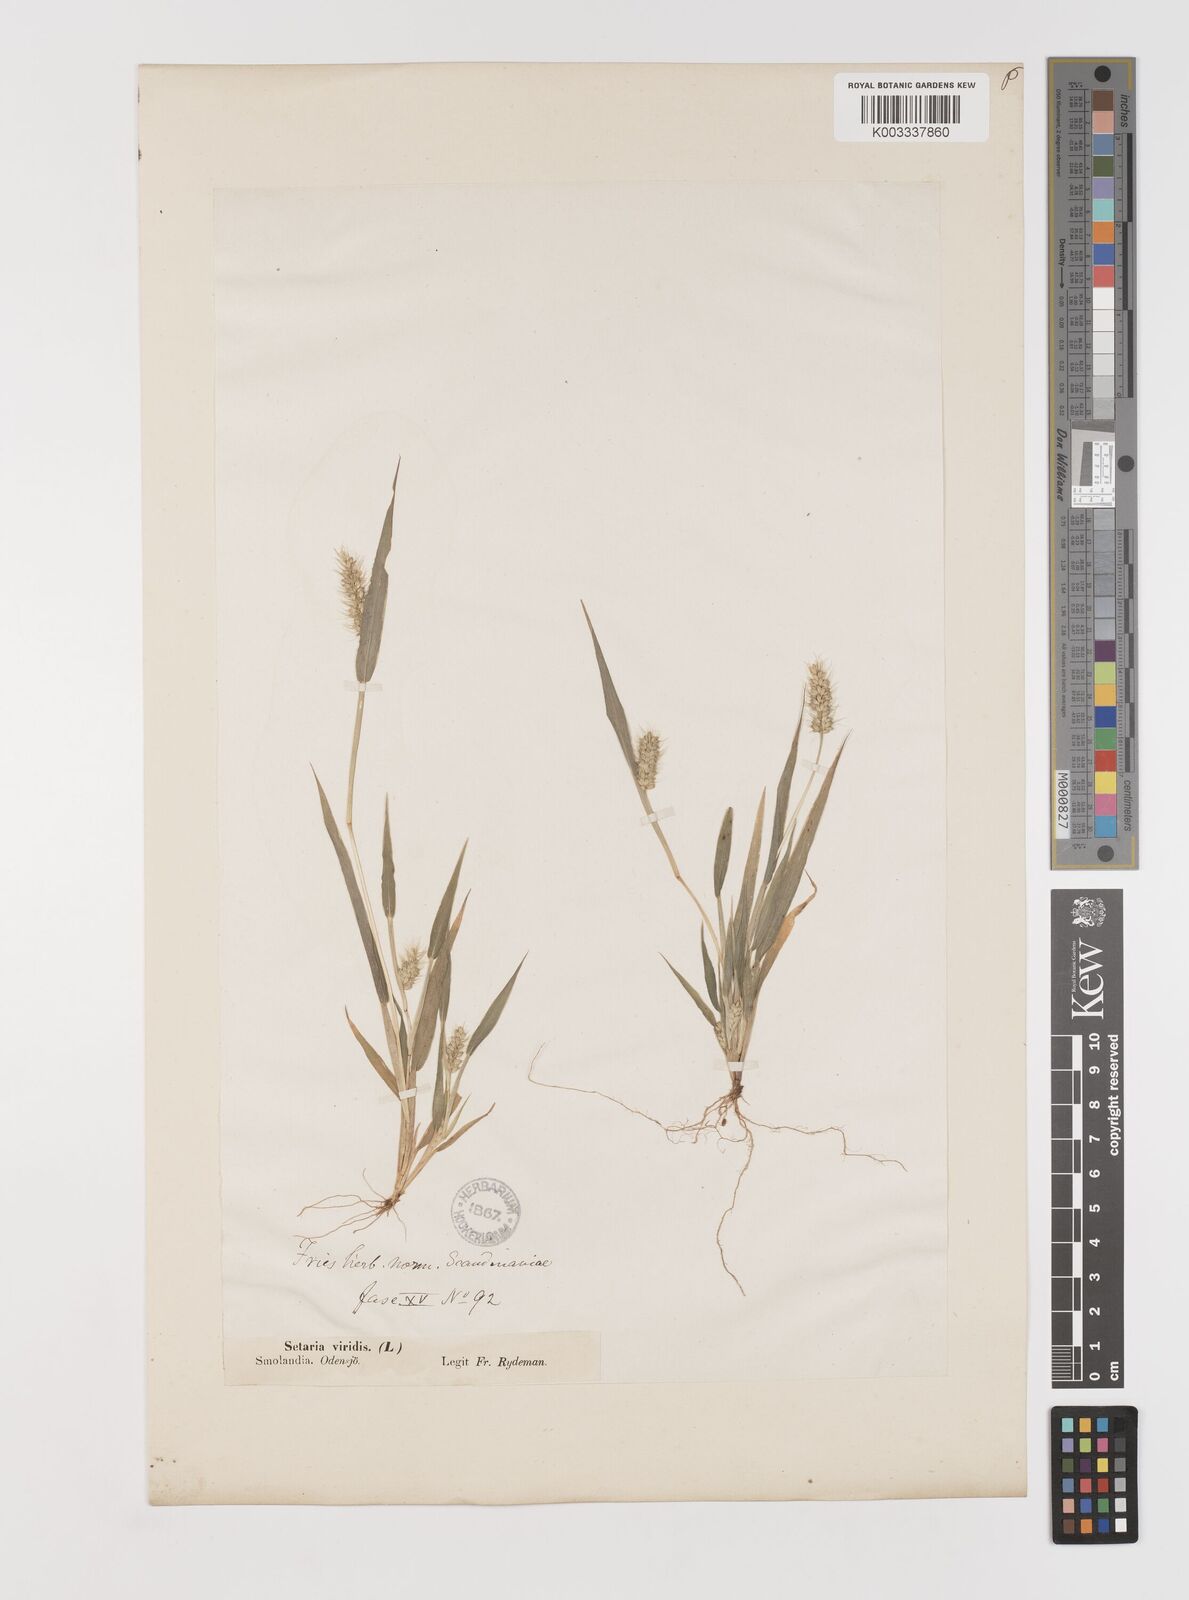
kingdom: Plantae
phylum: Tracheophyta
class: Liliopsida
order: Poales
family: Poaceae
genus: Setaria
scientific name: Setaria viridis
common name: Green bristlegrass
